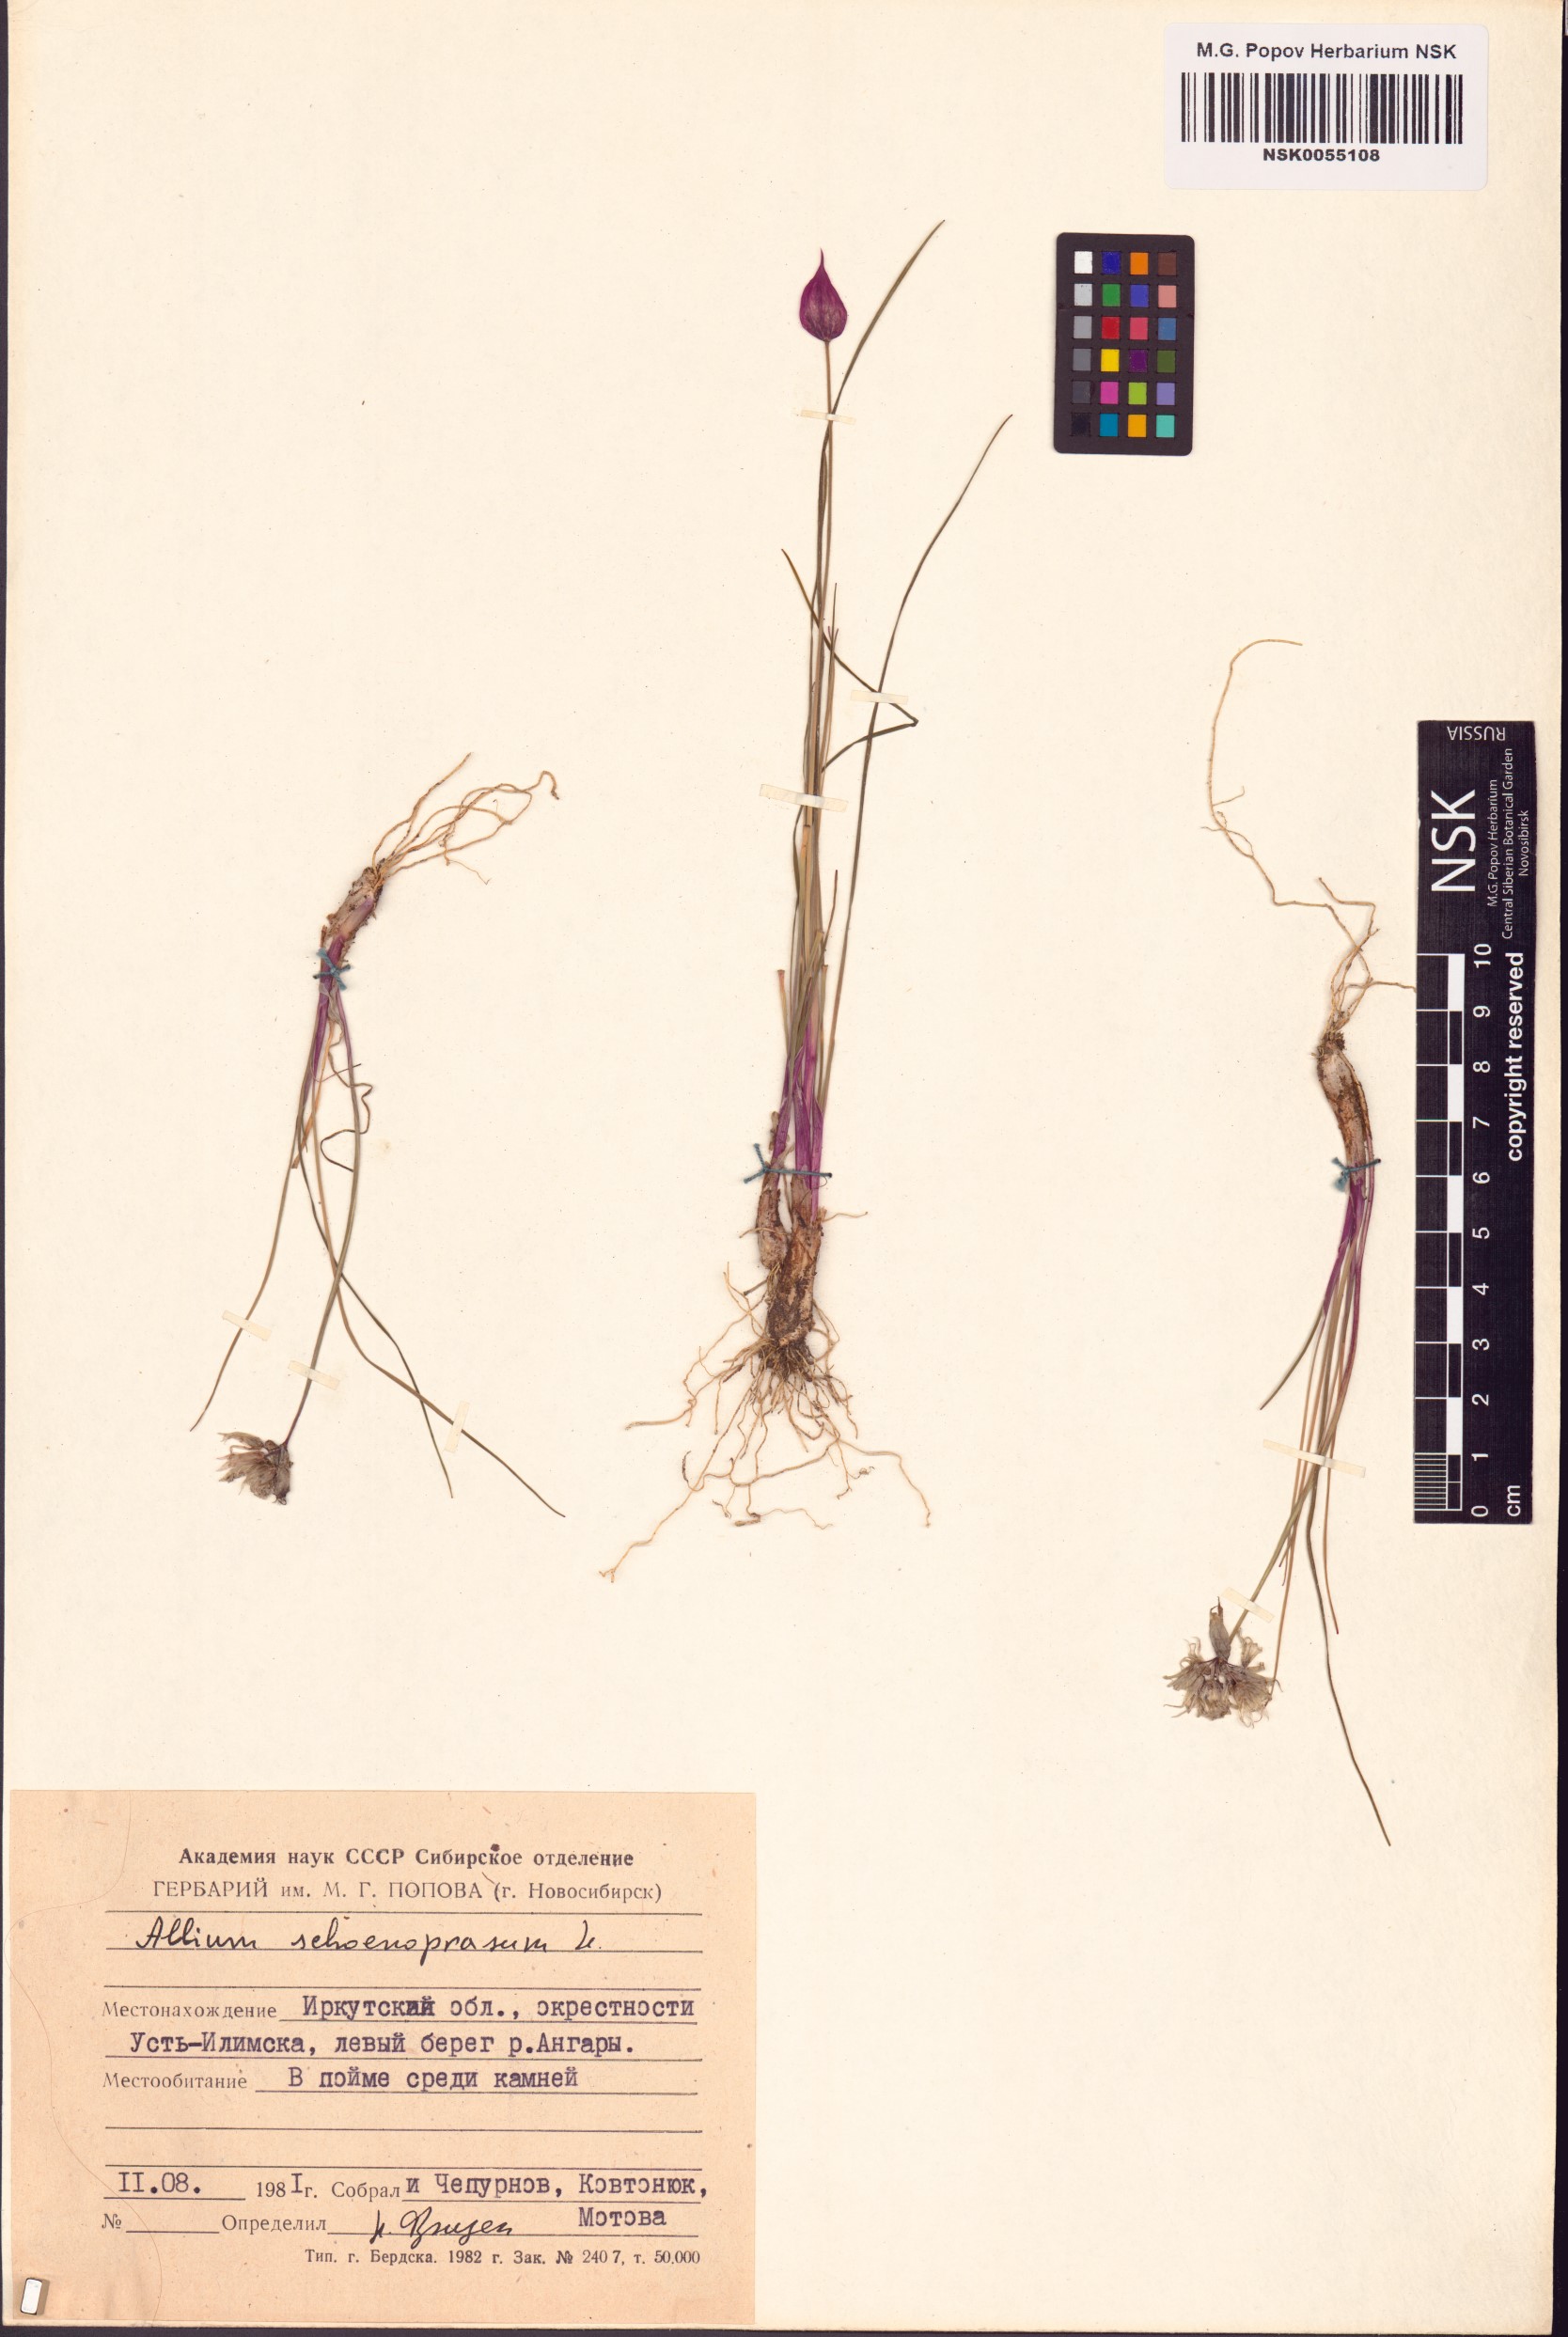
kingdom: Plantae
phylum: Tracheophyta
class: Liliopsida
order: Asparagales
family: Amaryllidaceae
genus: Allium
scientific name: Allium schoenoprasum
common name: Chives
